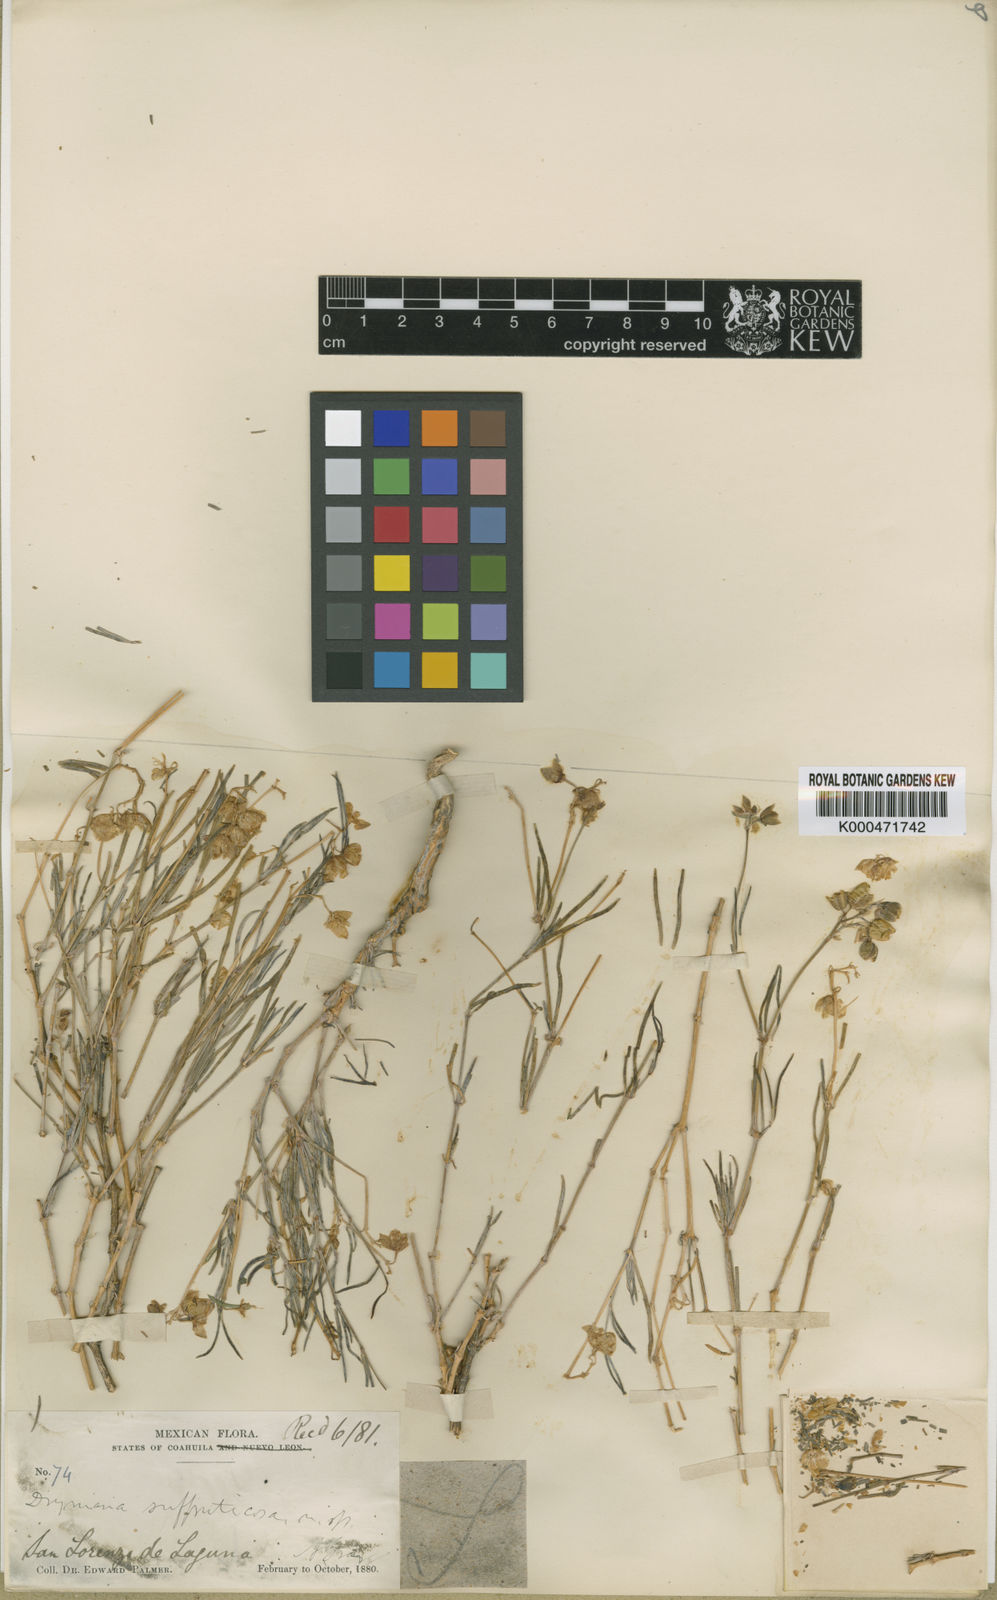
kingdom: Plantae
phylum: Tracheophyta
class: Magnoliopsida
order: Caryophyllales
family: Caryophyllaceae
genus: Drymaria
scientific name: Drymaria
